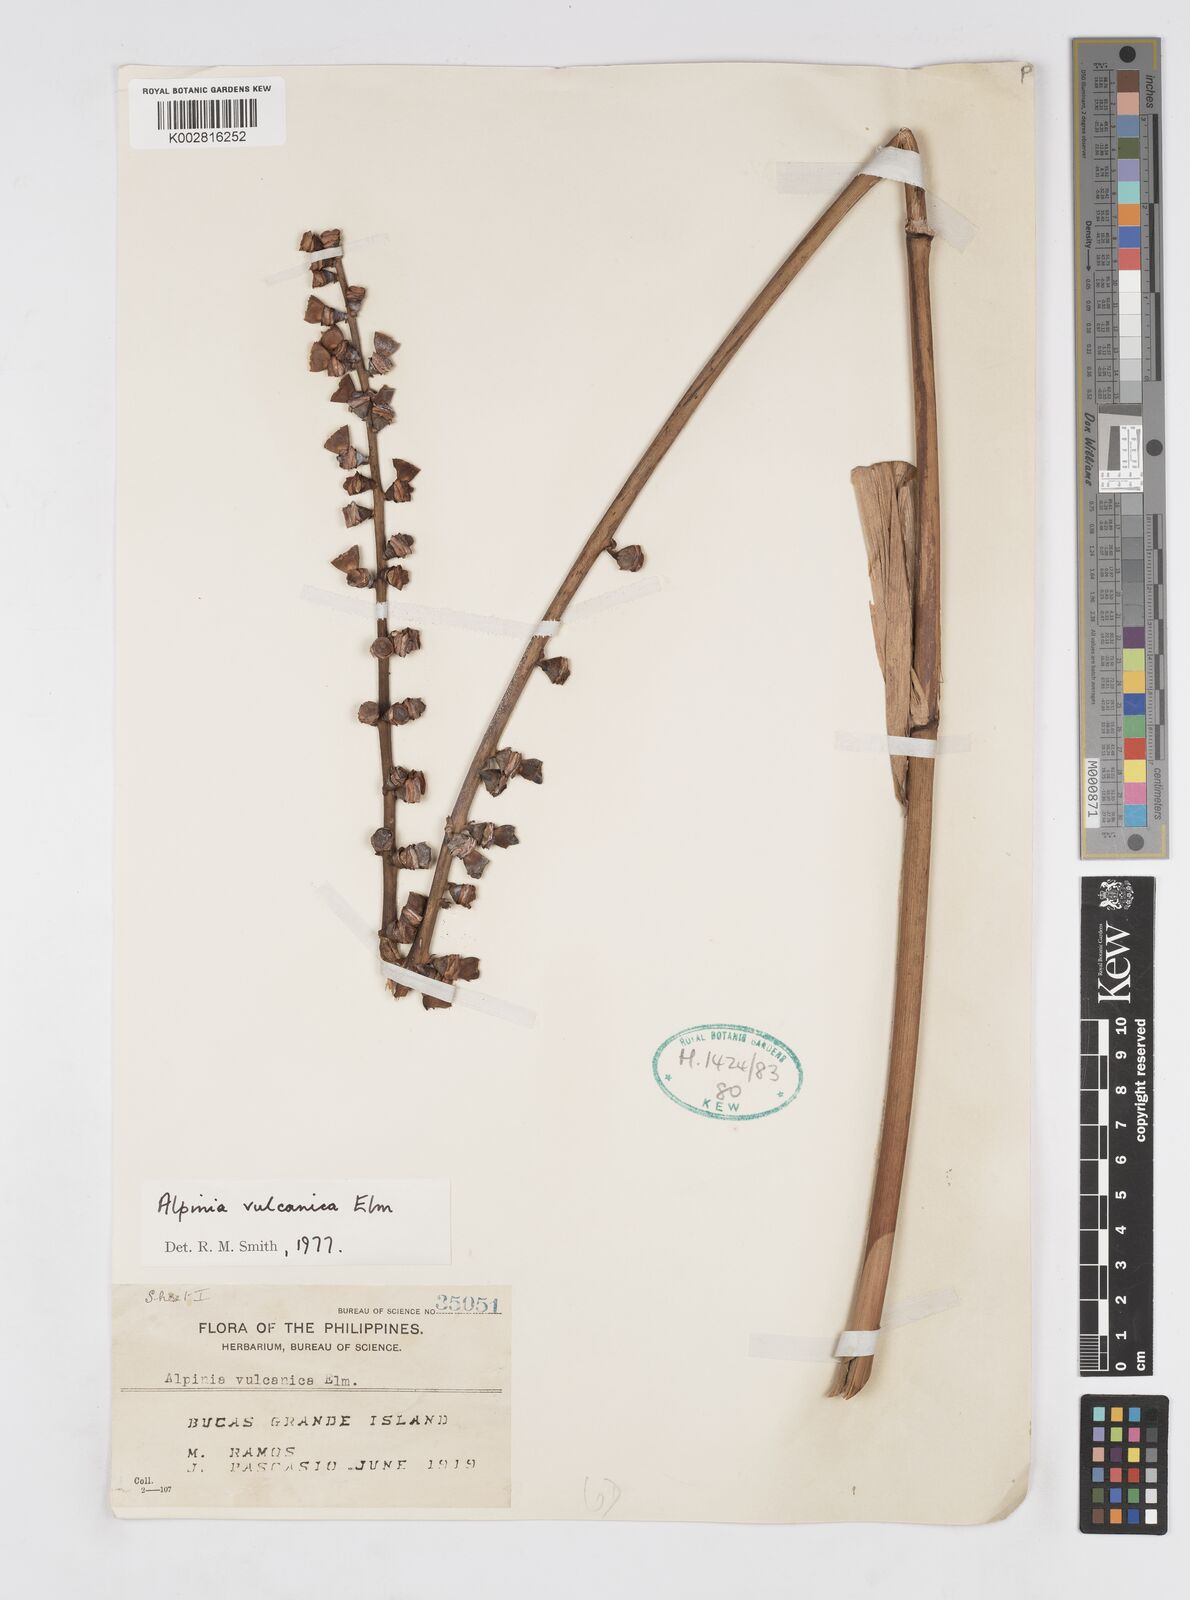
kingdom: Plantae
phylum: Tracheophyta
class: Liliopsida
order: Zingiberales
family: Zingiberaceae
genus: Alpinia
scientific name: Alpinia vulcanica
